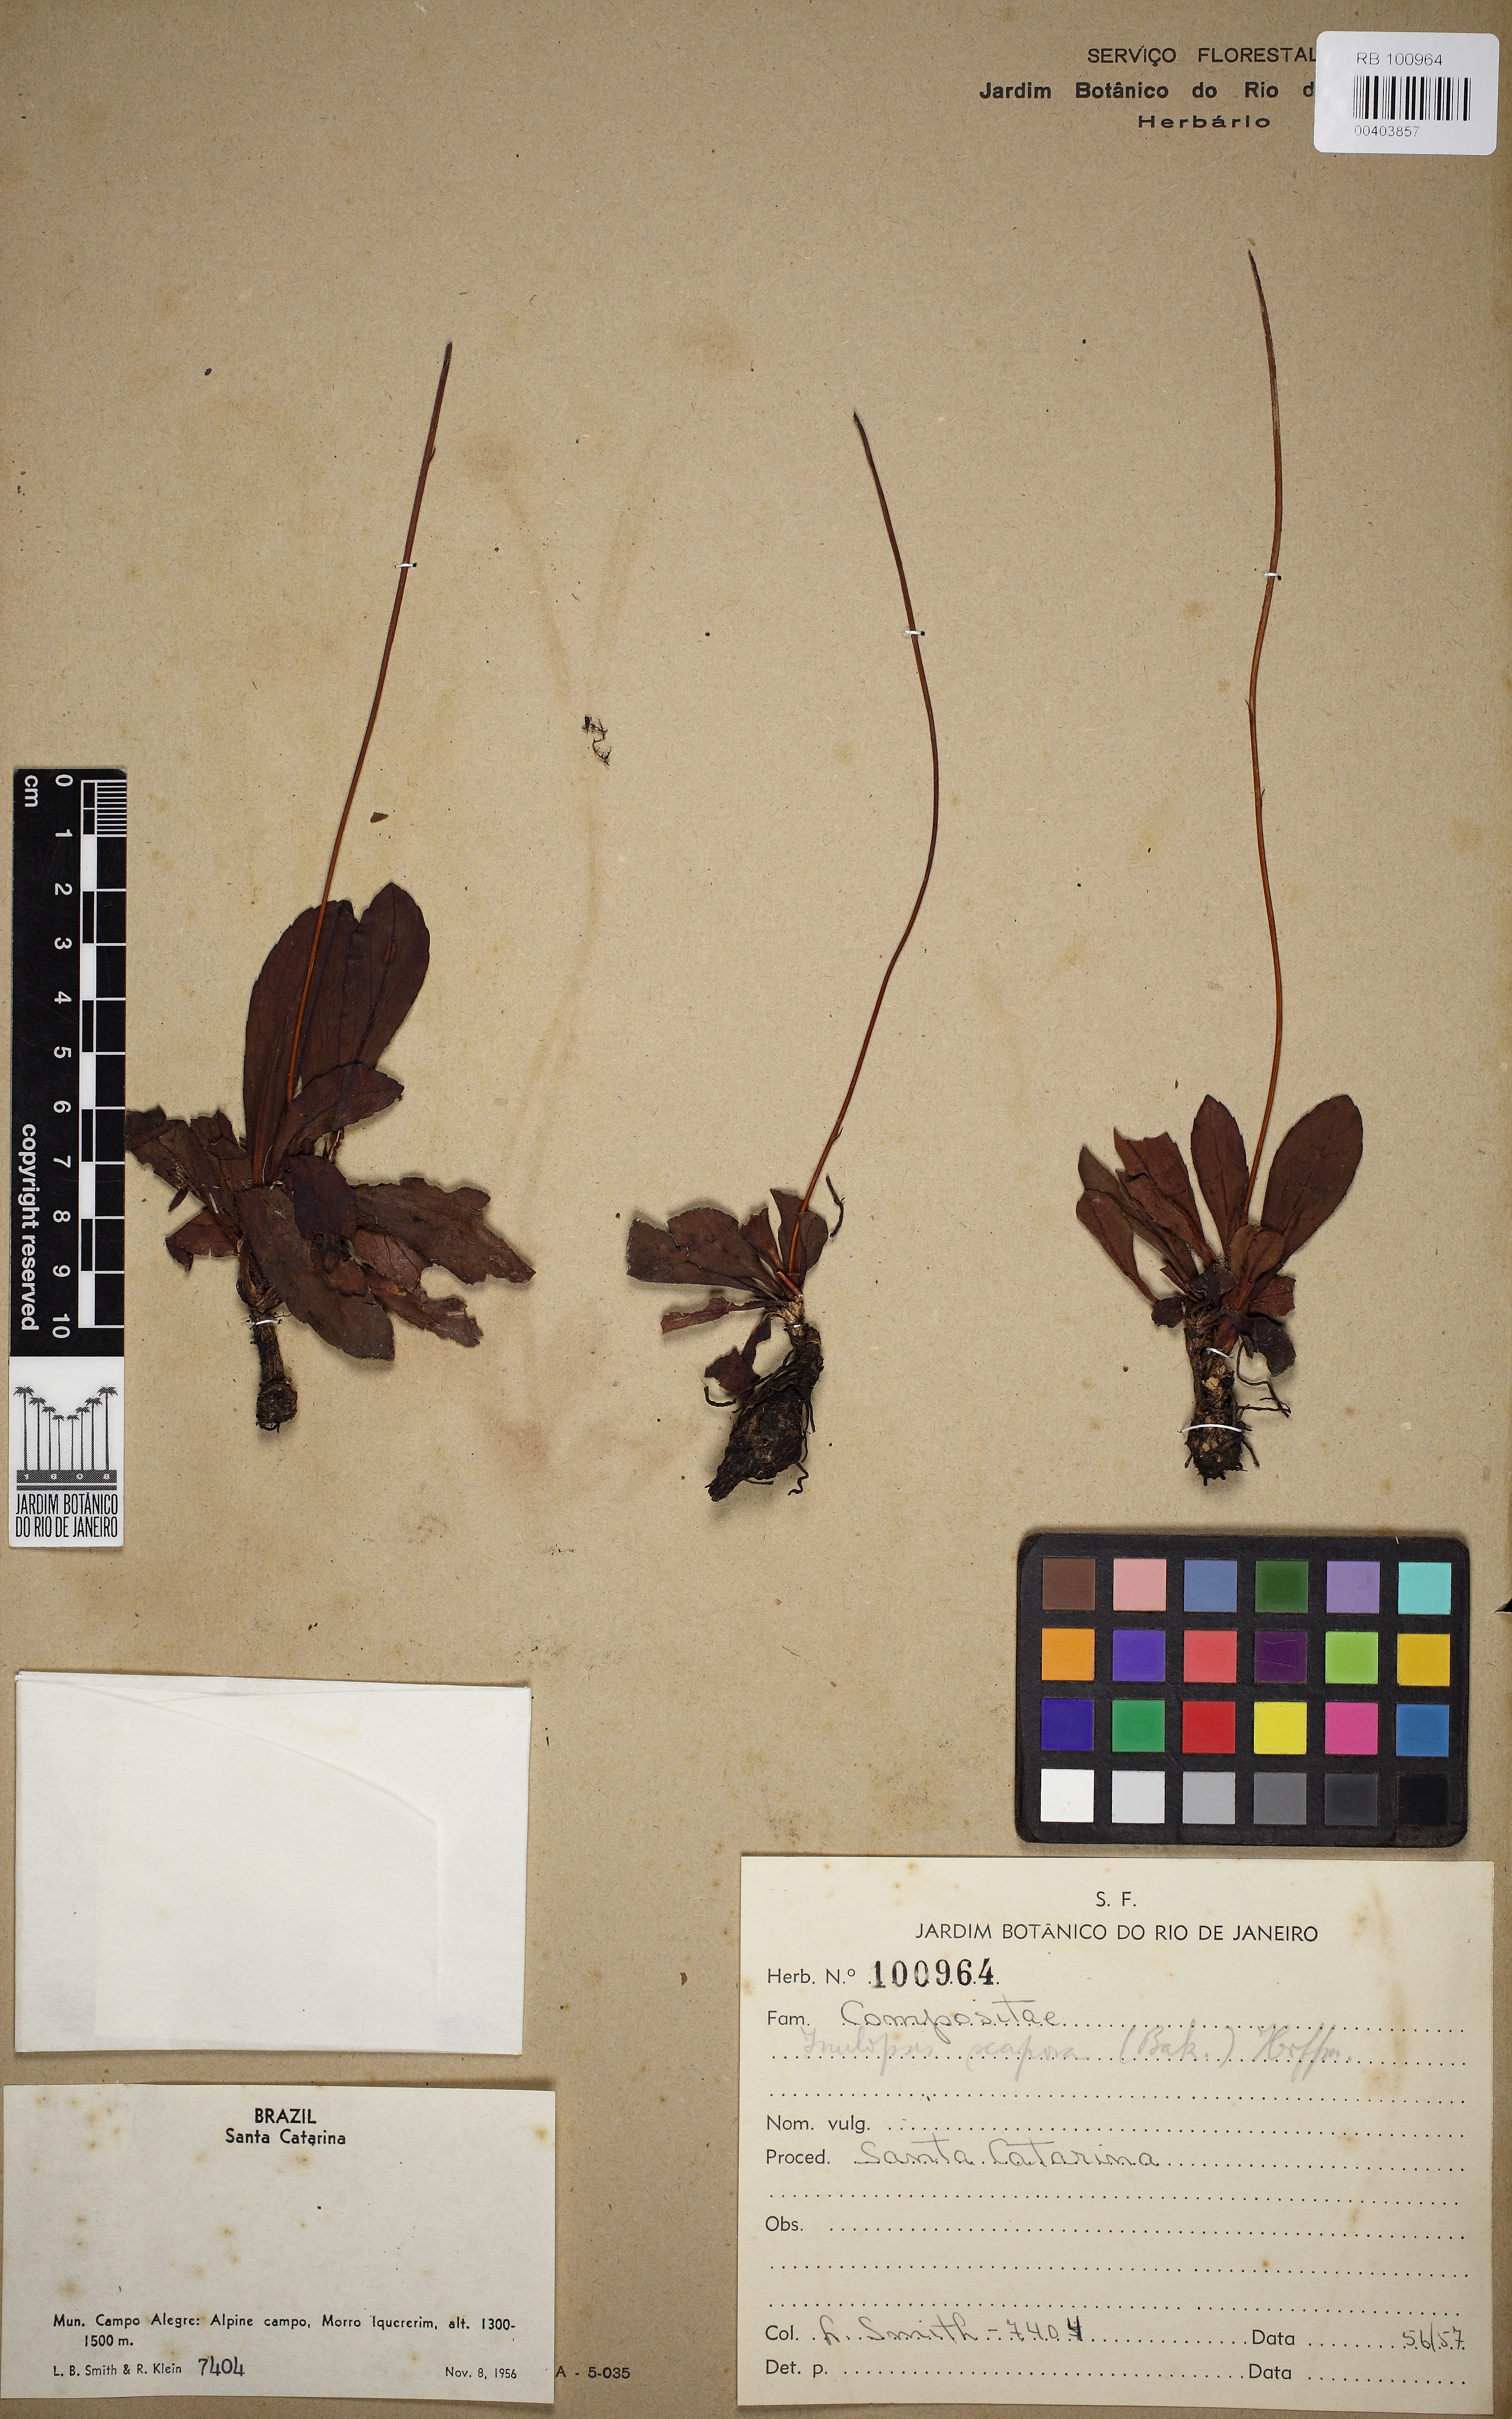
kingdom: Plantae
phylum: Tracheophyta
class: Magnoliopsida
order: Asterales
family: Asteraceae
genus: Inulopsis
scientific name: Inulopsis scaposa
